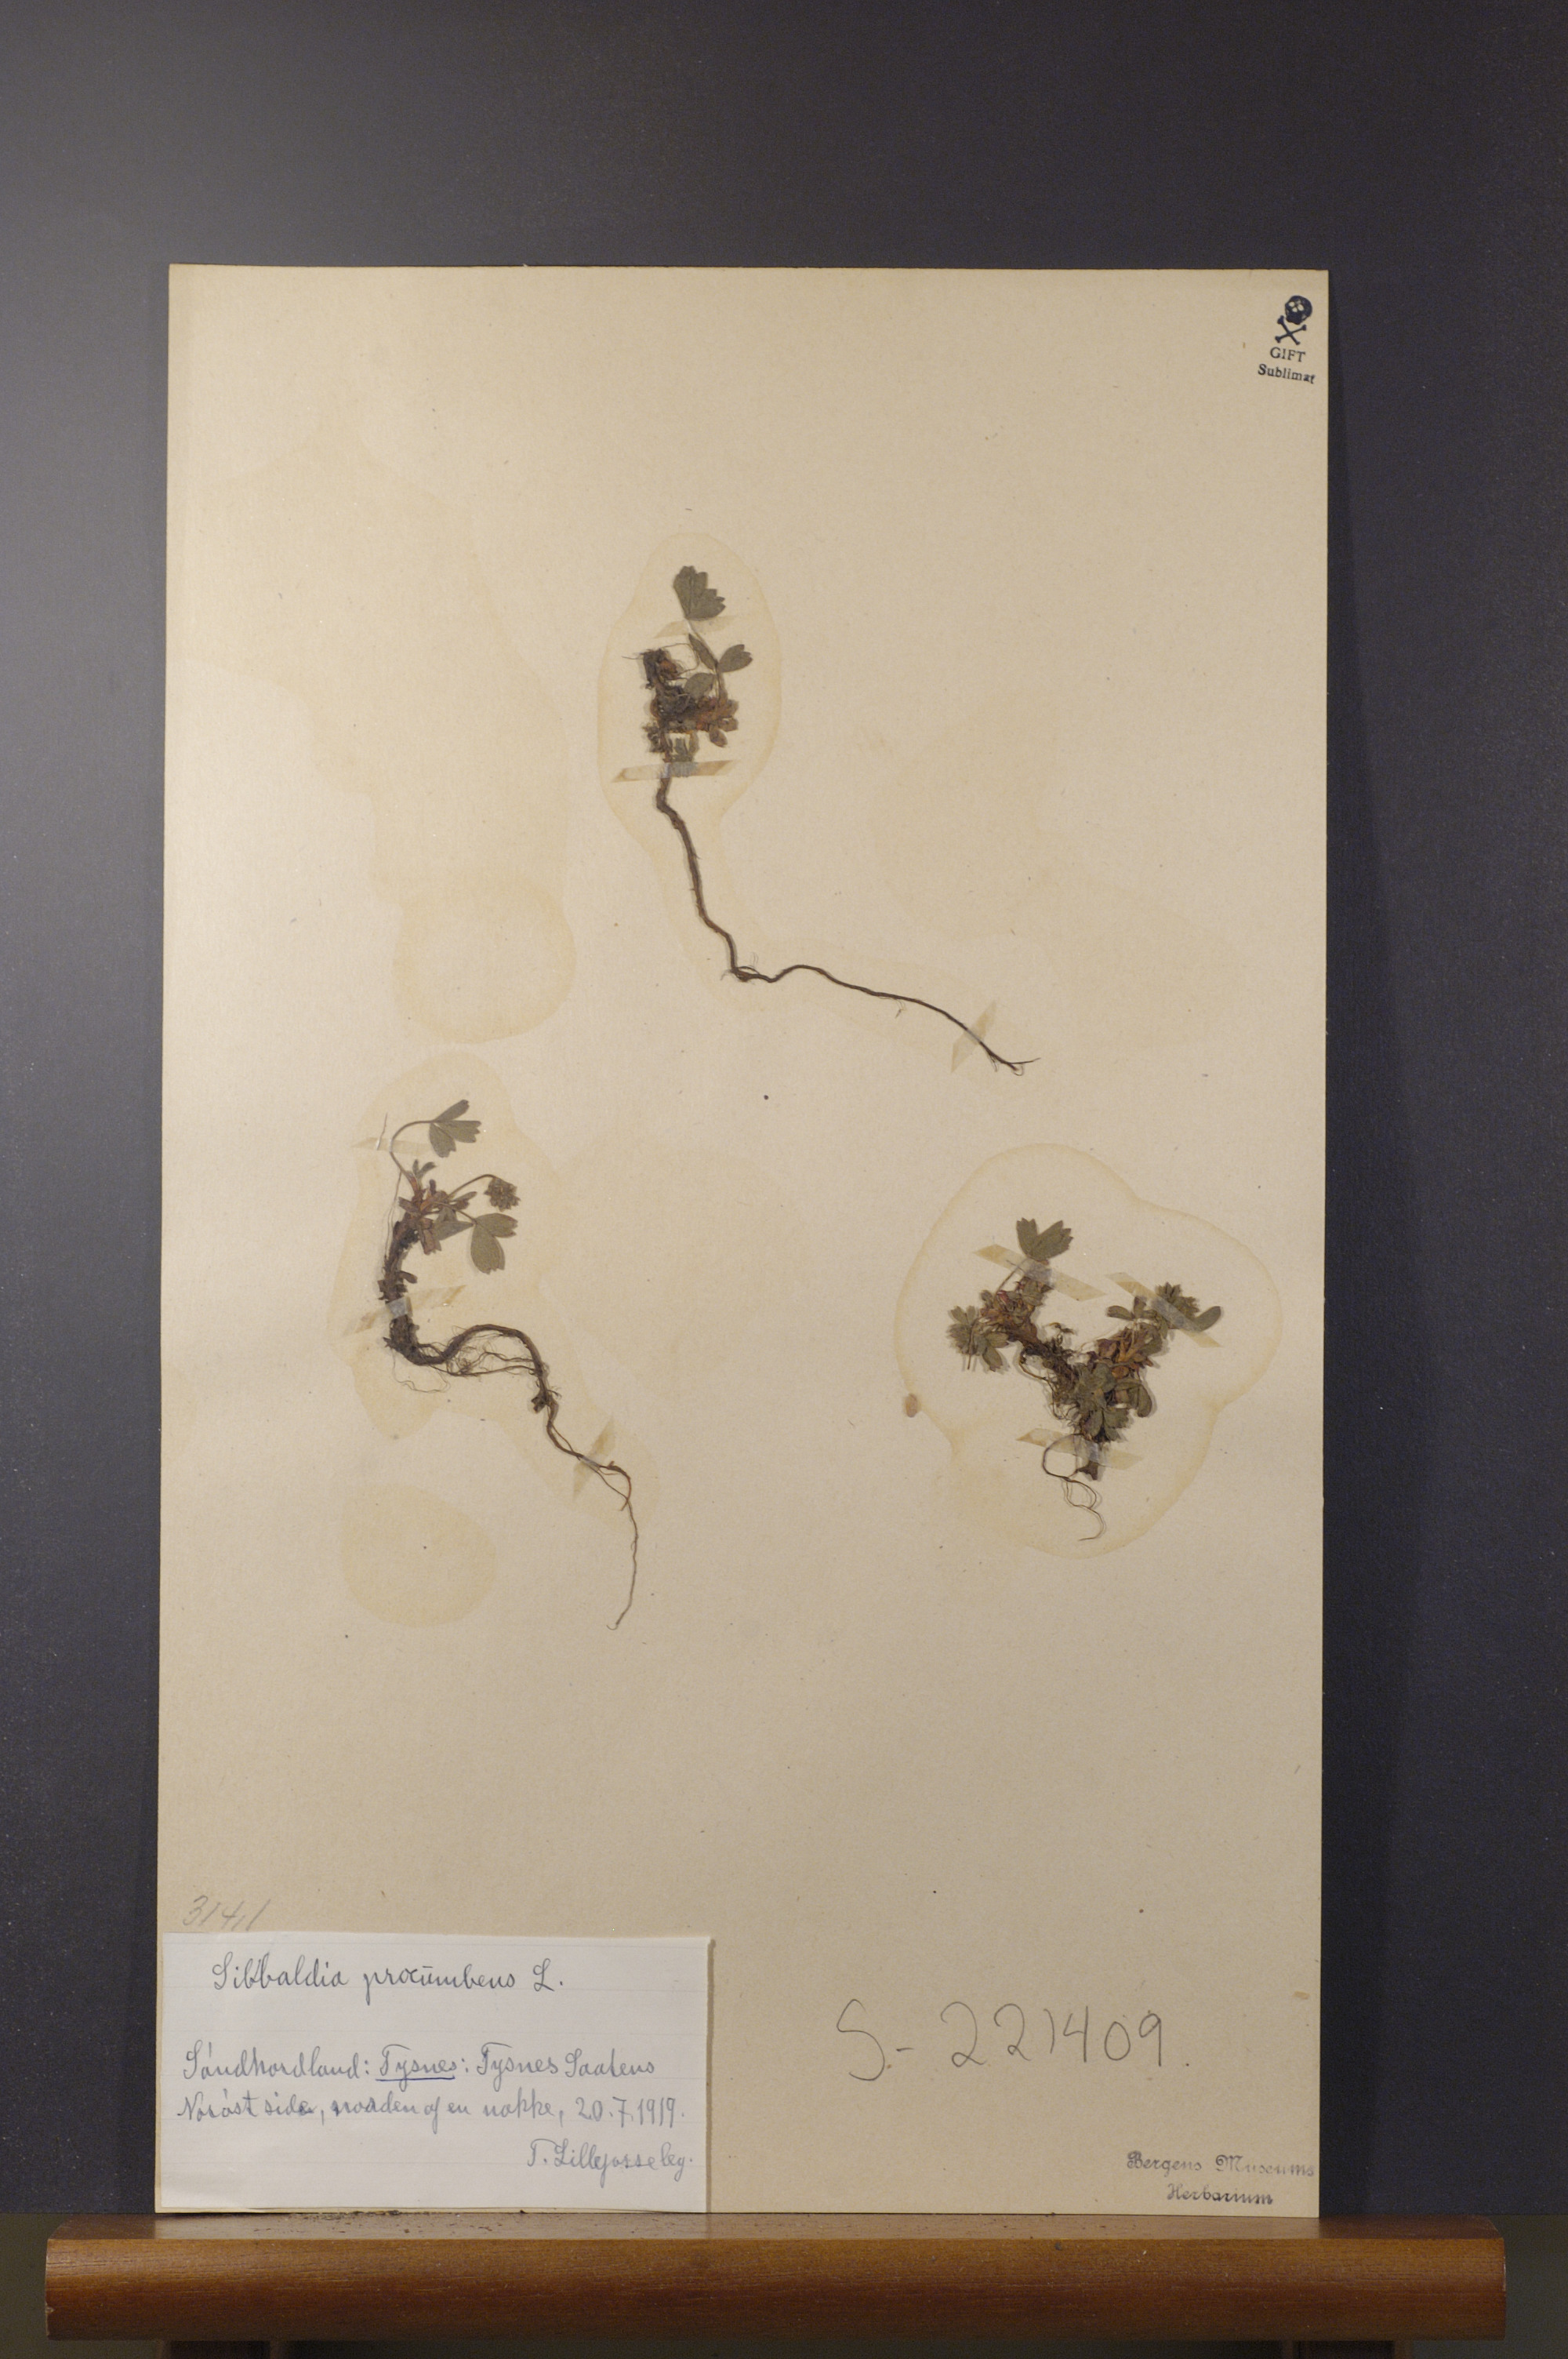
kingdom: Plantae
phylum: Tracheophyta
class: Magnoliopsida
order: Rosales
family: Rosaceae
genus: Sibbaldia
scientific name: Sibbaldia procumbens
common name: Creeping sibbaldia
